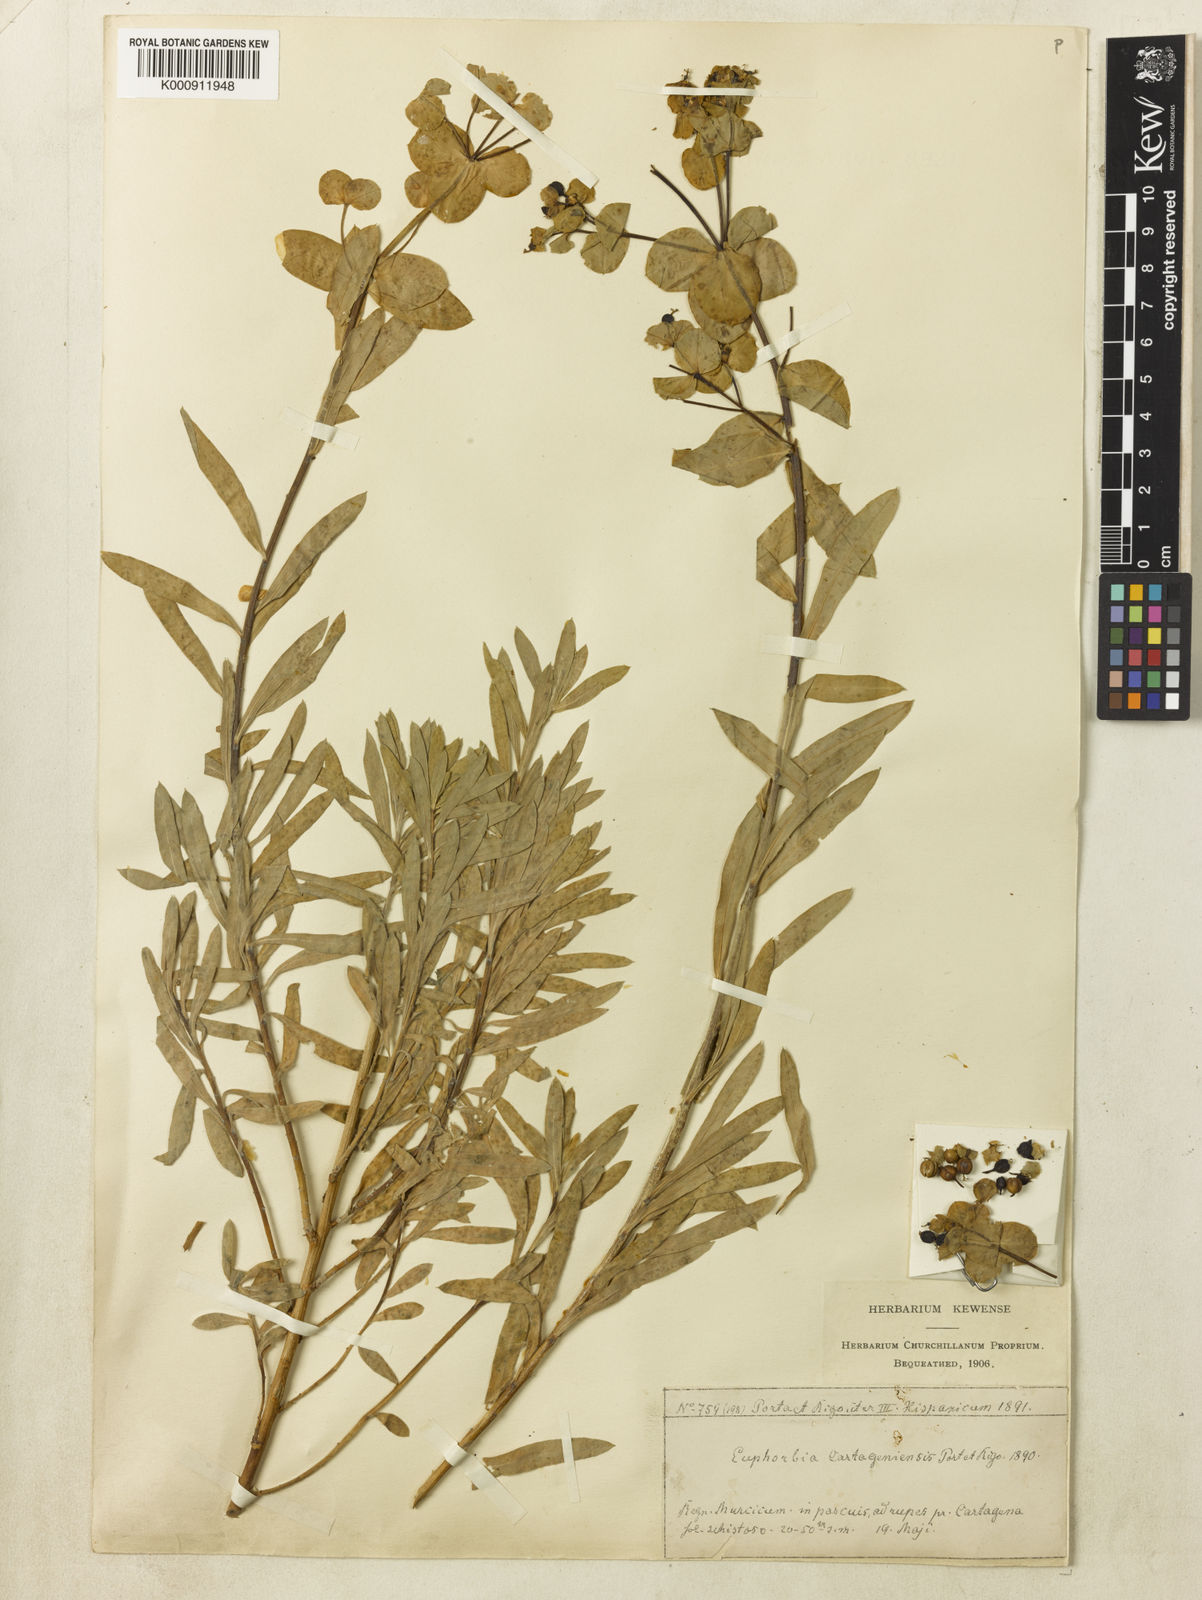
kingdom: Plantae
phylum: Tracheophyta
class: Magnoliopsida
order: Malpighiales
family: Euphorbiaceae
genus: Euphorbia
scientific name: Euphorbia
